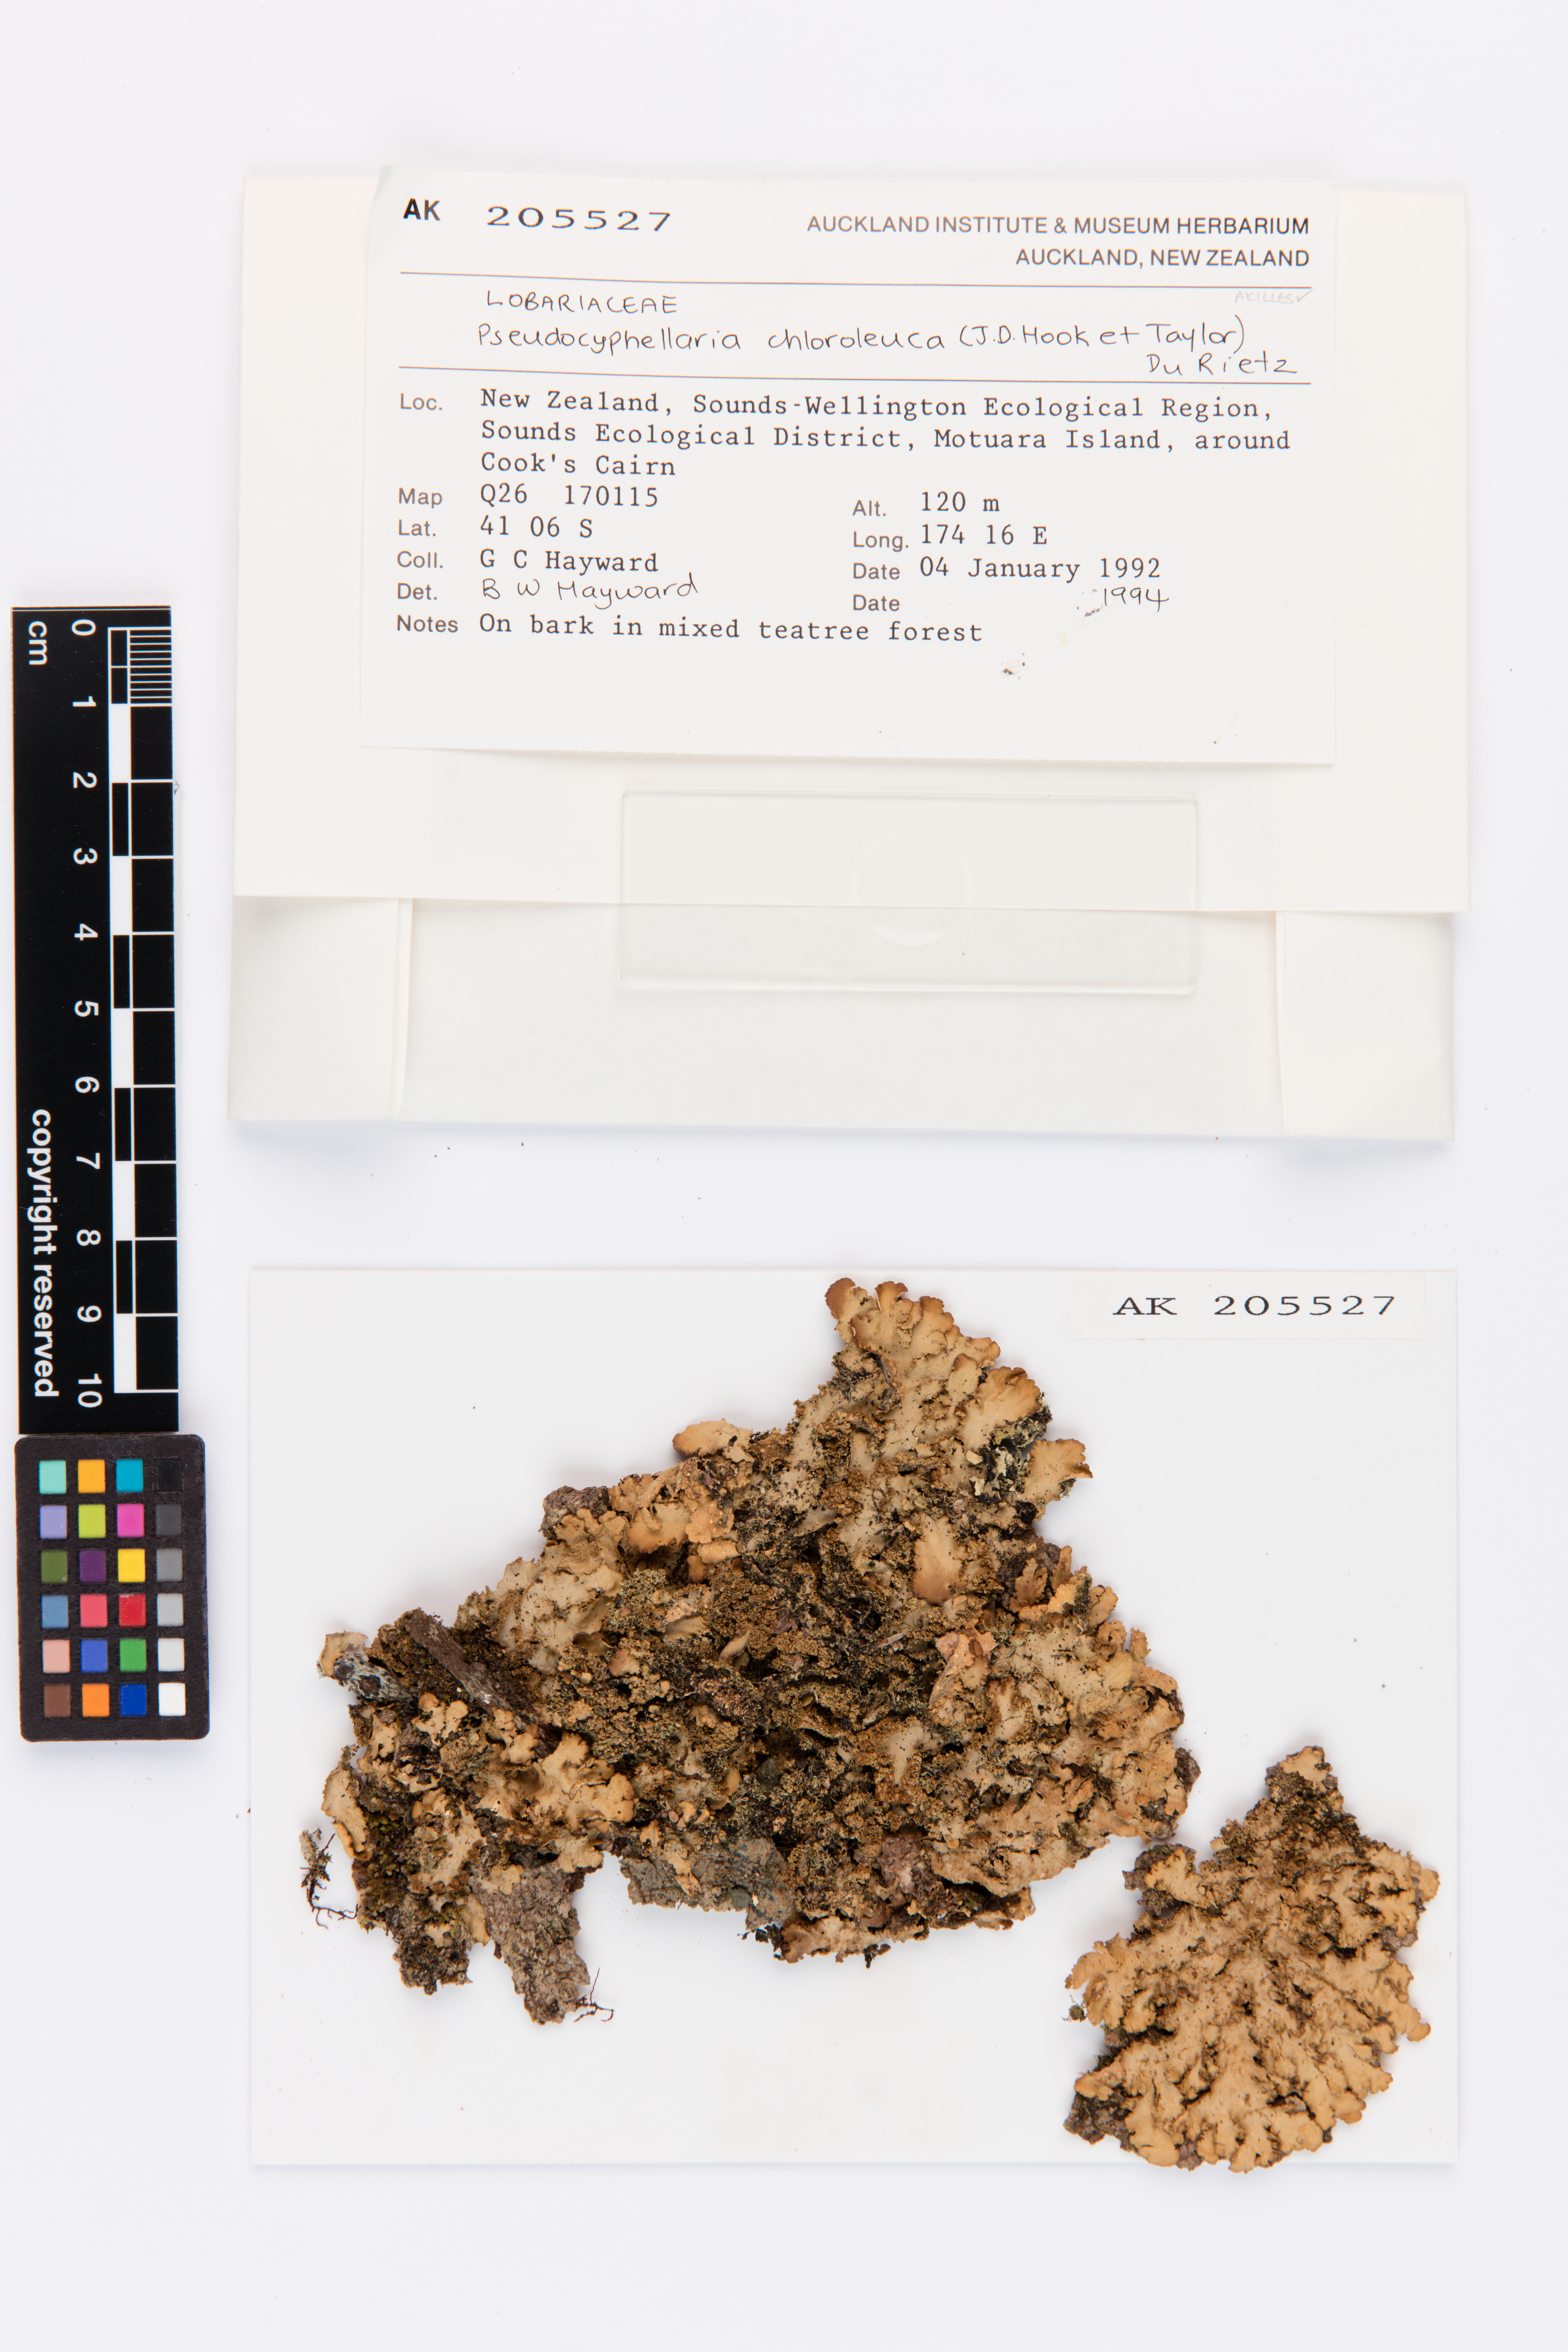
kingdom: Fungi
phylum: Ascomycota
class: Lecanoromycetes
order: Peltigerales
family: Lobariaceae
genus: Pseudocyphellaria
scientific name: Pseudocyphellaria chloroleuca
